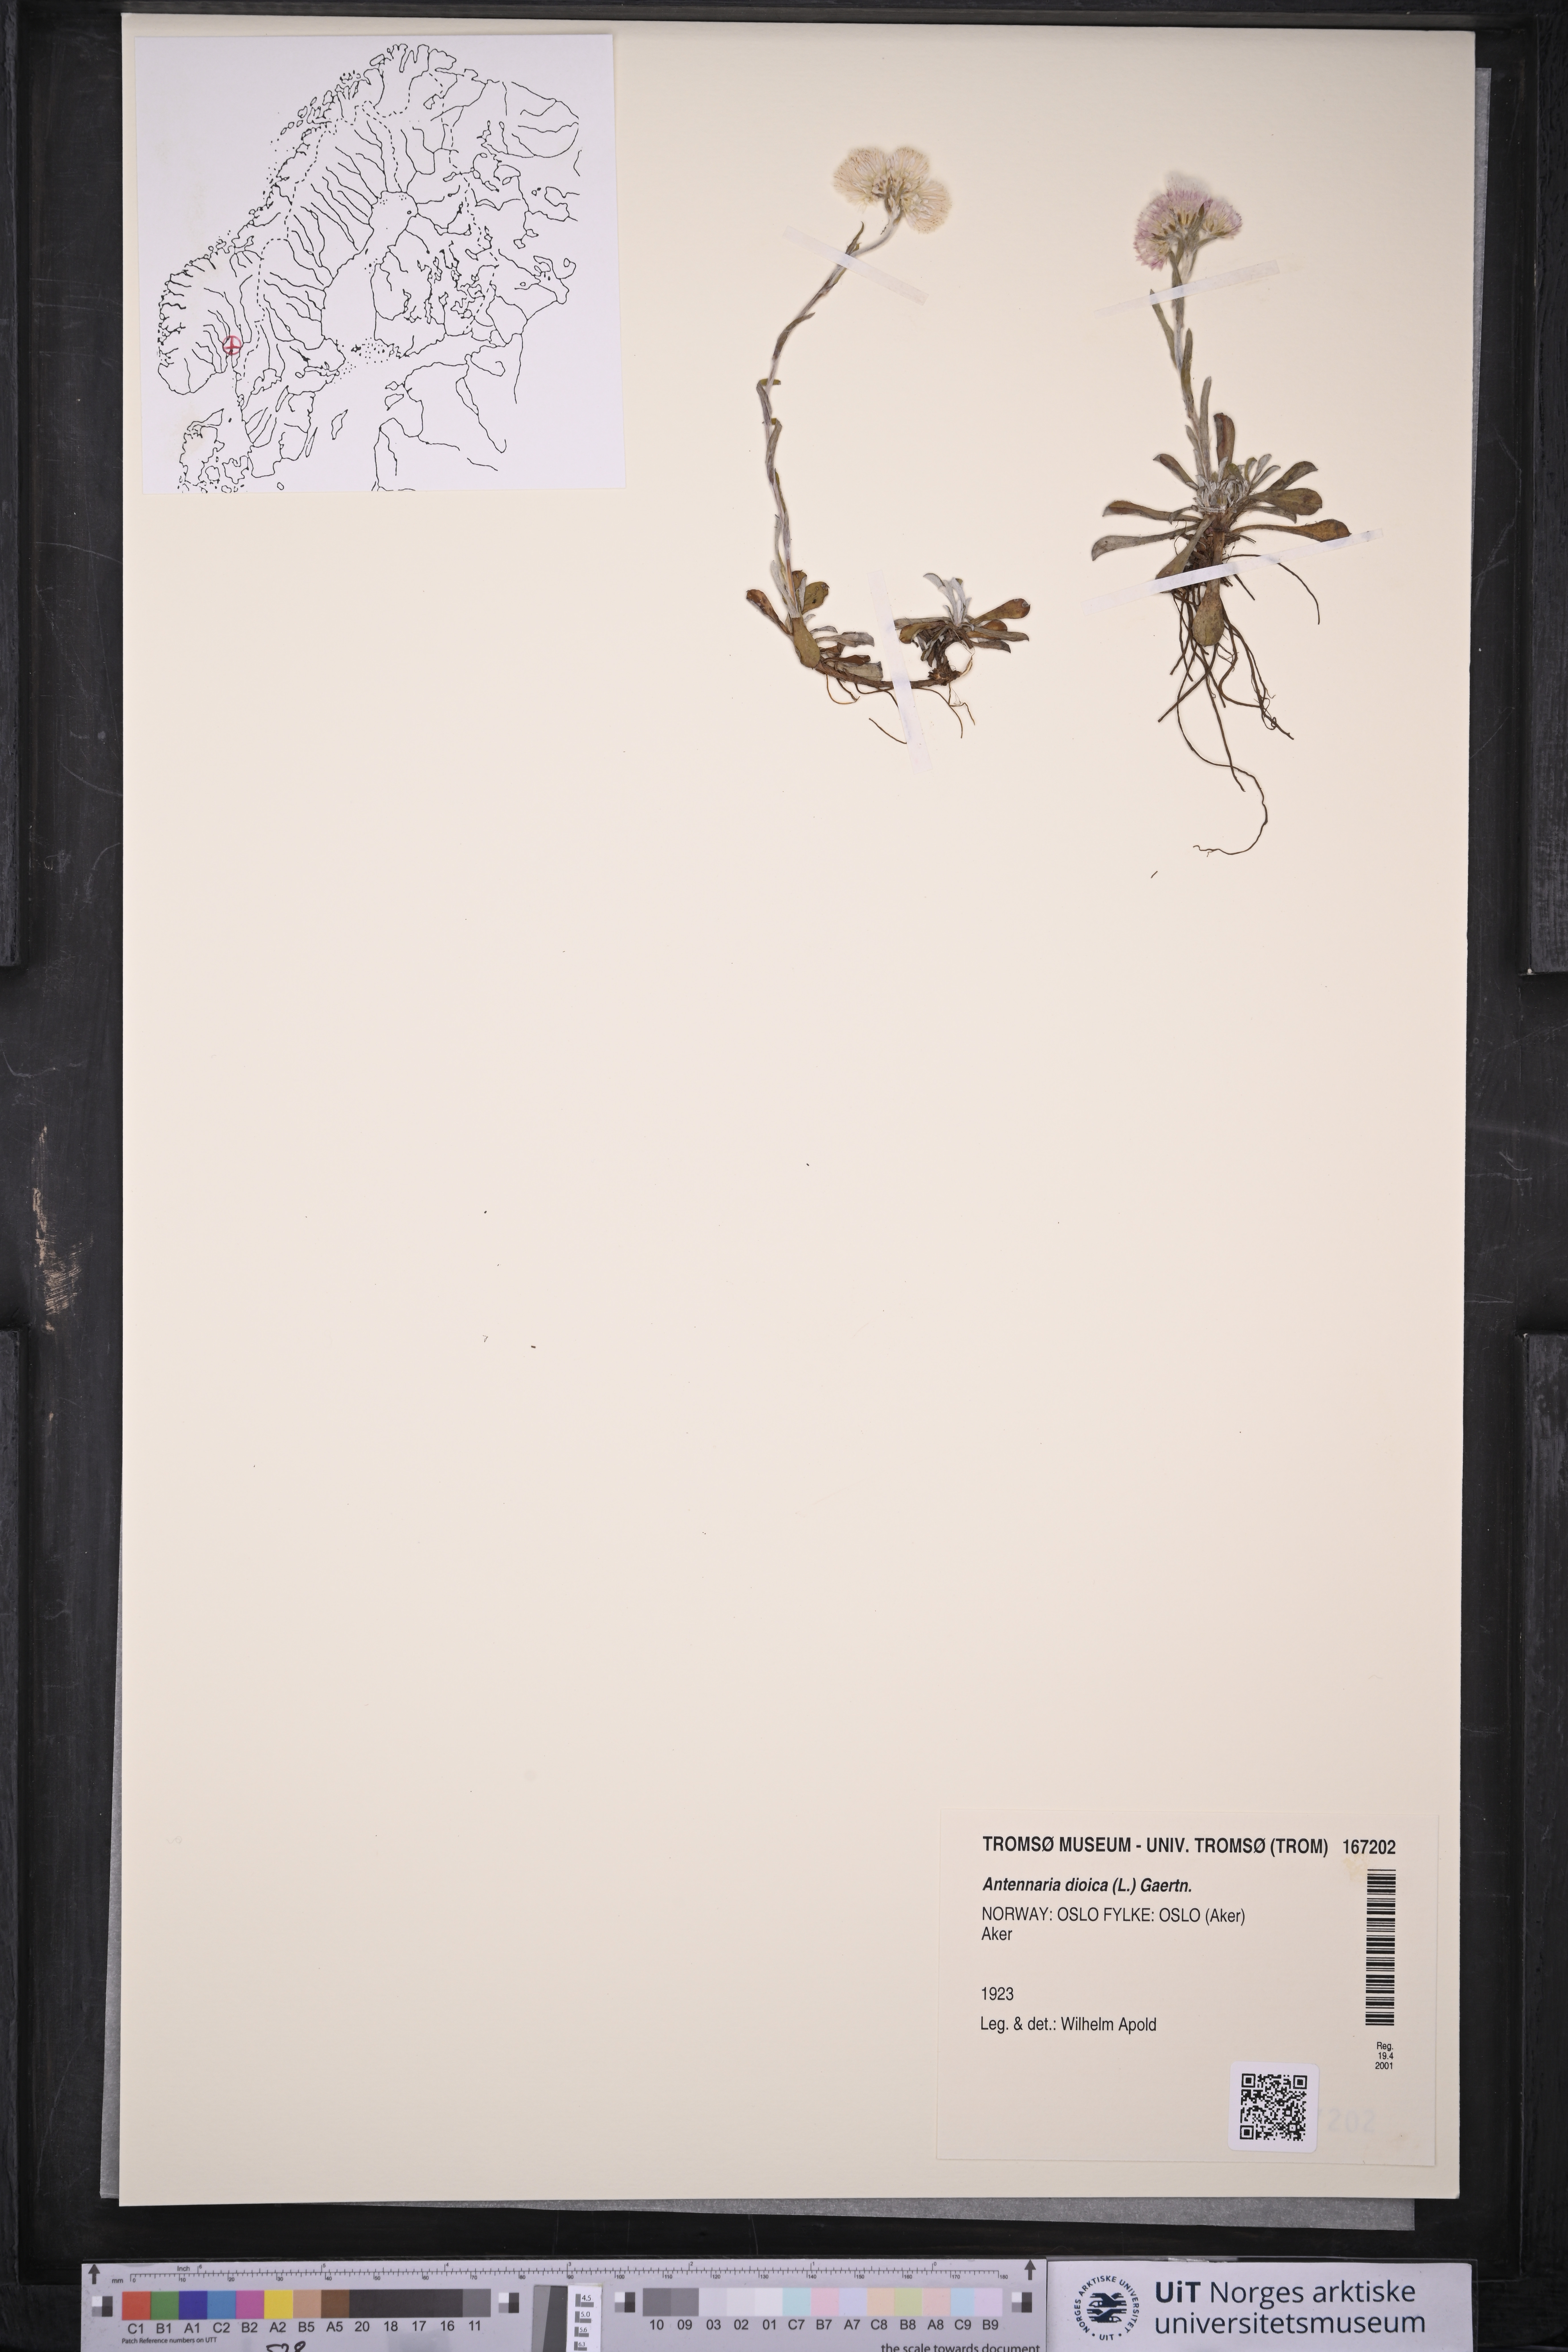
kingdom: Plantae
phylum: Tracheophyta
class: Magnoliopsida
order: Asterales
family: Asteraceae
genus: Antennaria
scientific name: Antennaria dioica
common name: Mountain everlasting
